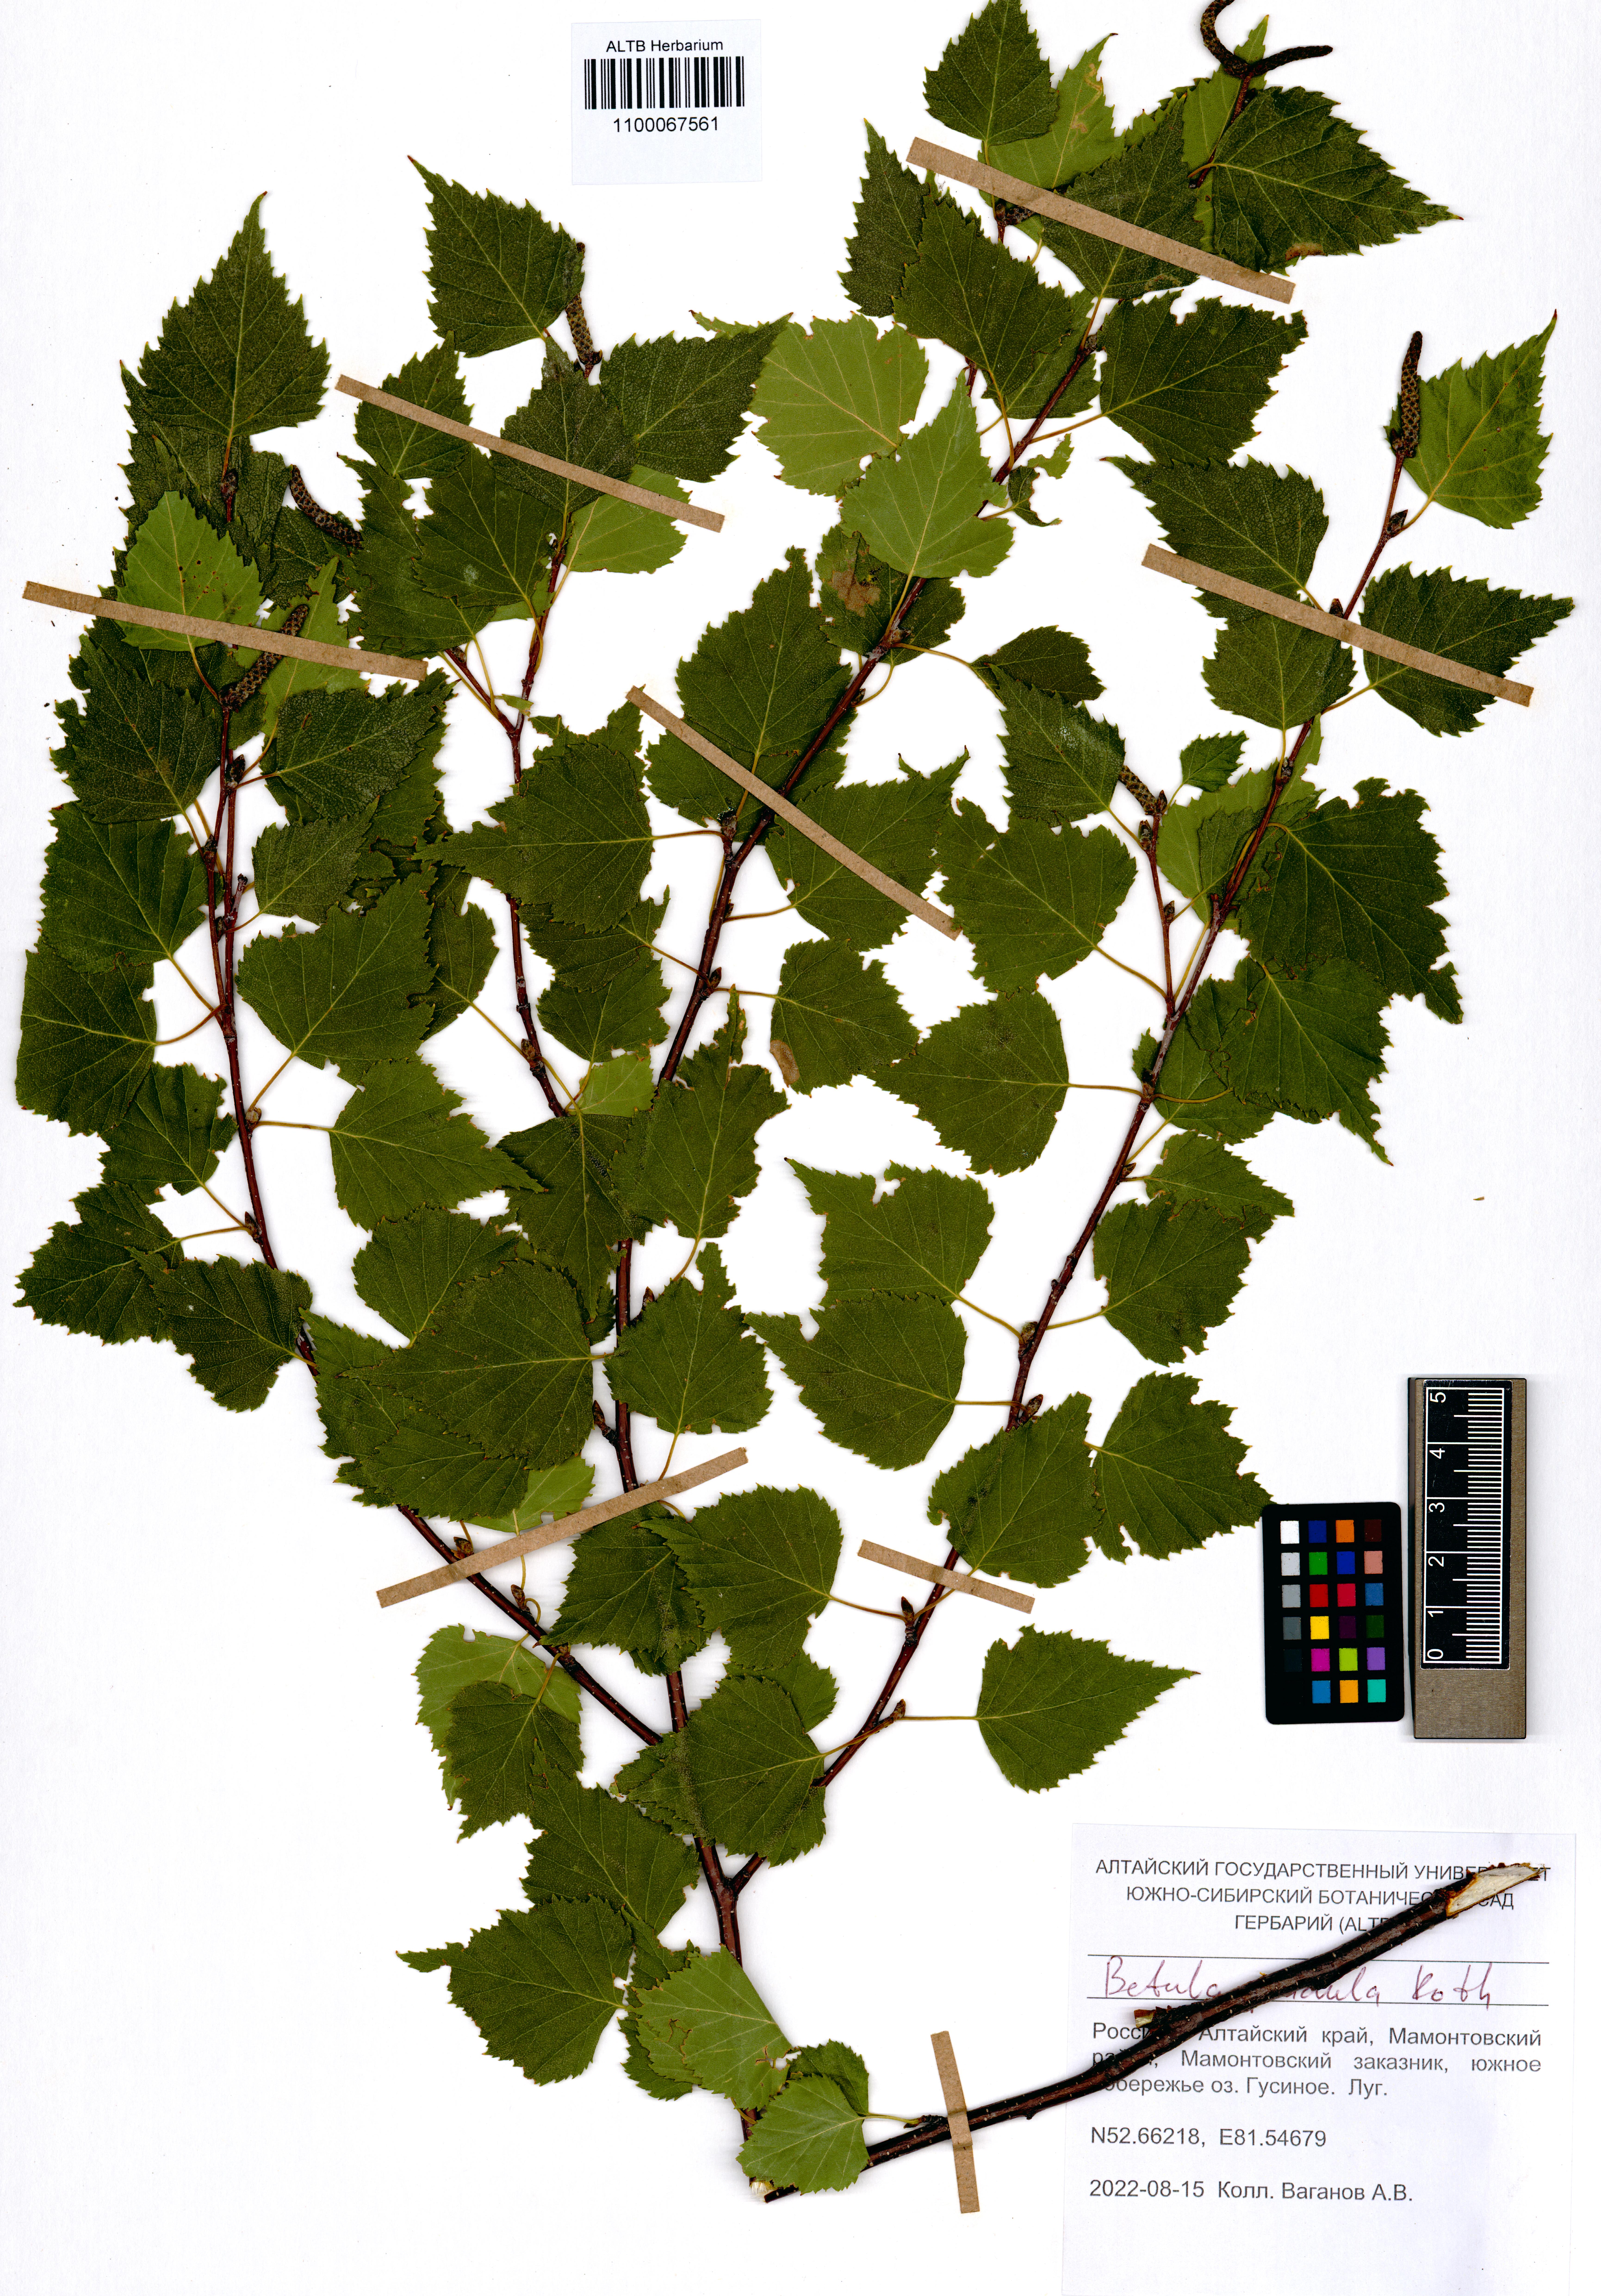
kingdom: Plantae
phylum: Tracheophyta
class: Magnoliopsida
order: Fagales
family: Betulaceae
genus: Betula
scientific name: Betula pendula
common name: Silver birch
